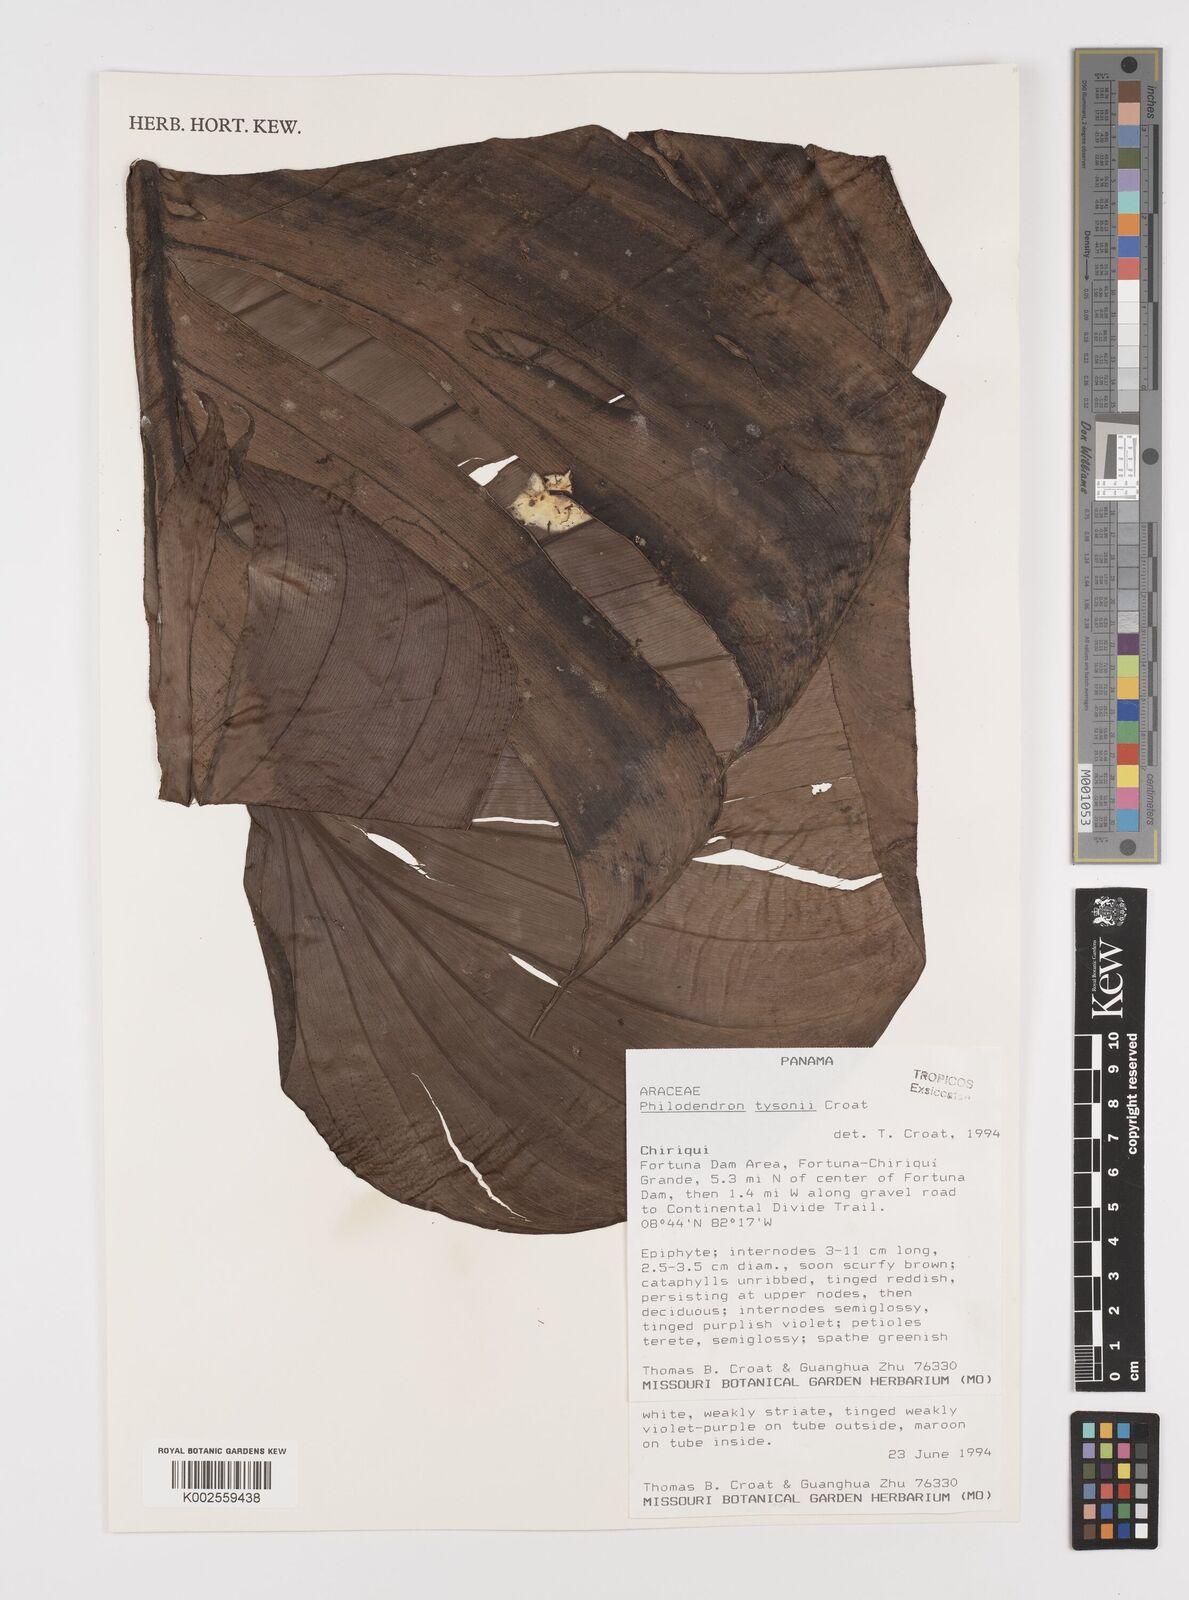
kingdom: Plantae
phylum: Tracheophyta
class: Liliopsida
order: Alismatales
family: Araceae
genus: Philodendron
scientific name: Philodendron tysonii
